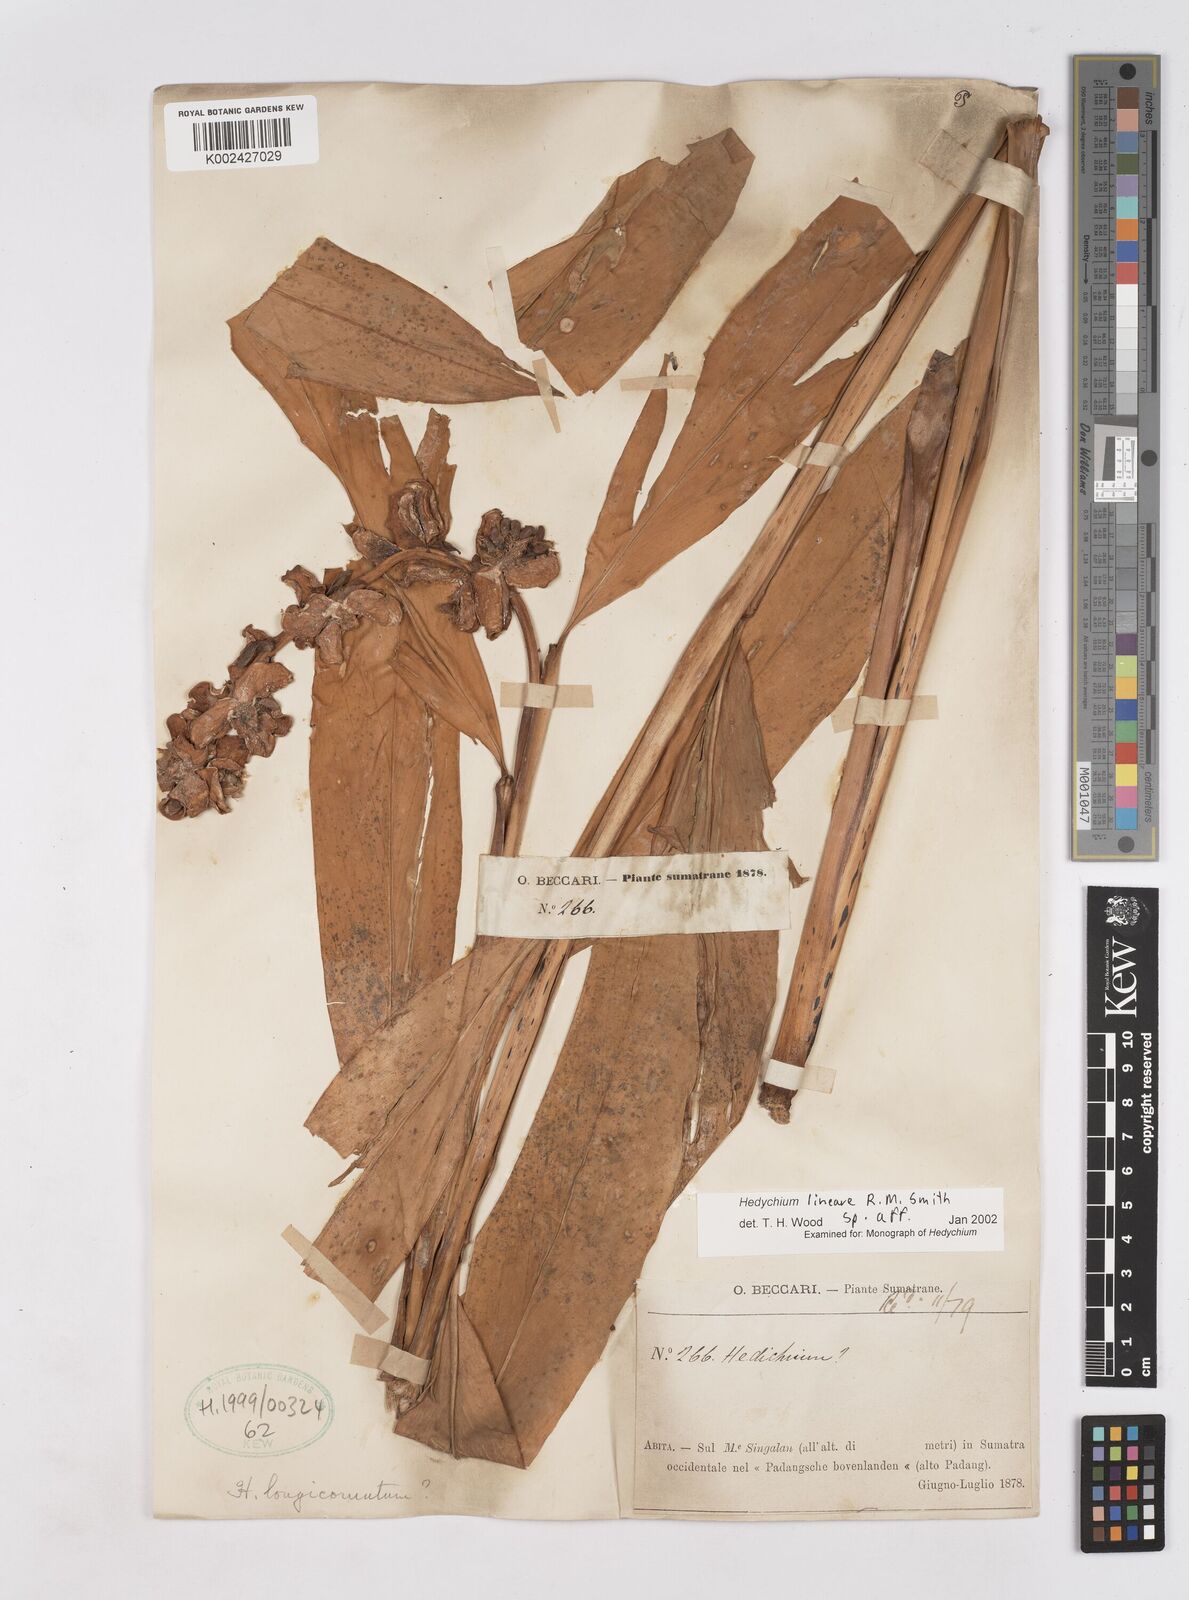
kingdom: Plantae
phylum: Tracheophyta
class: Liliopsida
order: Zingiberales
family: Zingiberaceae
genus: Hedychium
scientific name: Hedychium lineare
